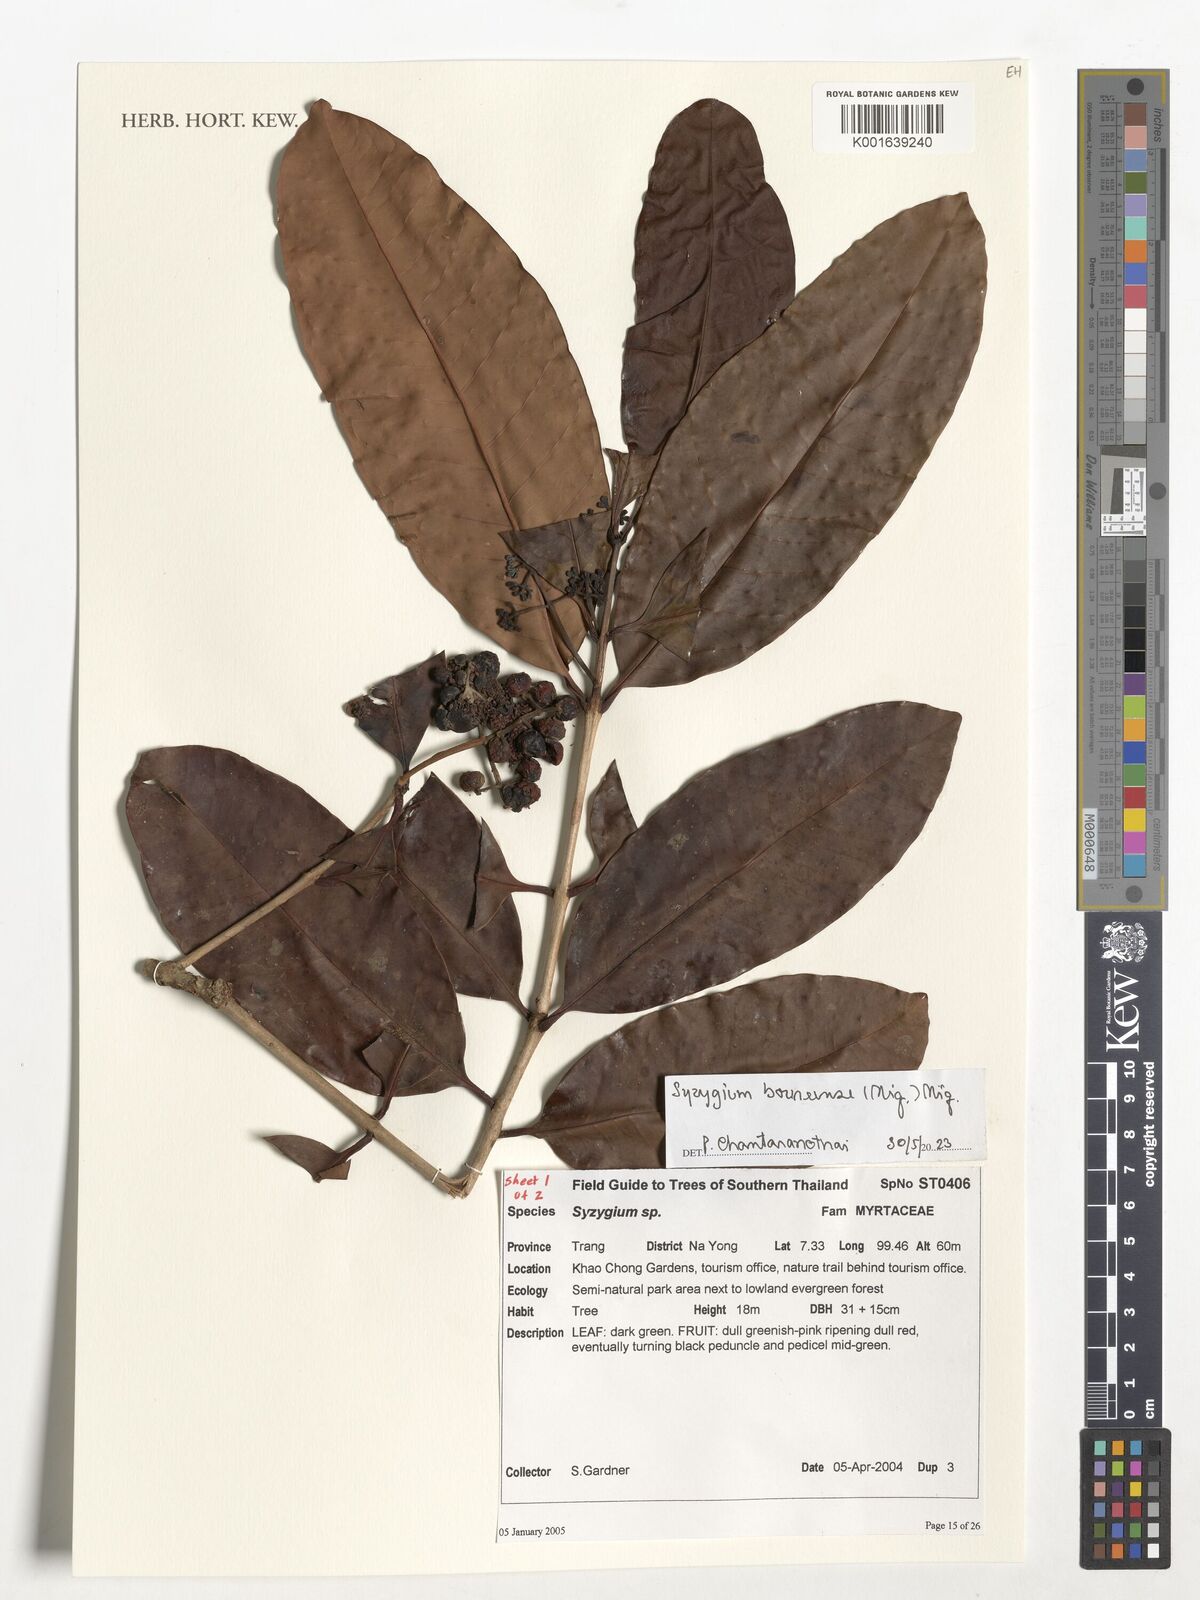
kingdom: Plantae
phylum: Tracheophyta
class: Magnoliopsida
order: Myrtales
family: Myrtaceae
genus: Syzygium
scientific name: Syzygium borneense
